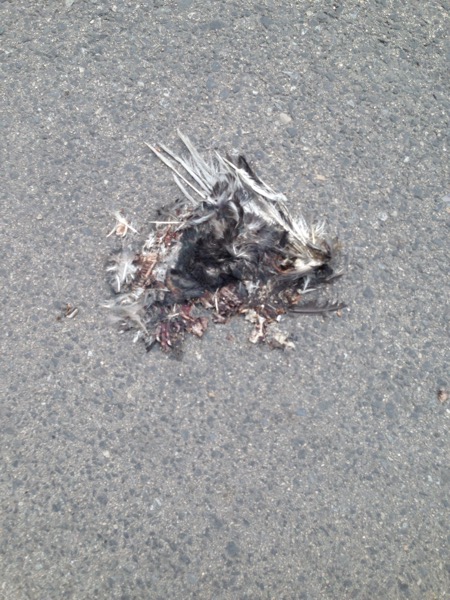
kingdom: Animalia
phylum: Chordata
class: Aves
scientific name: Aves
